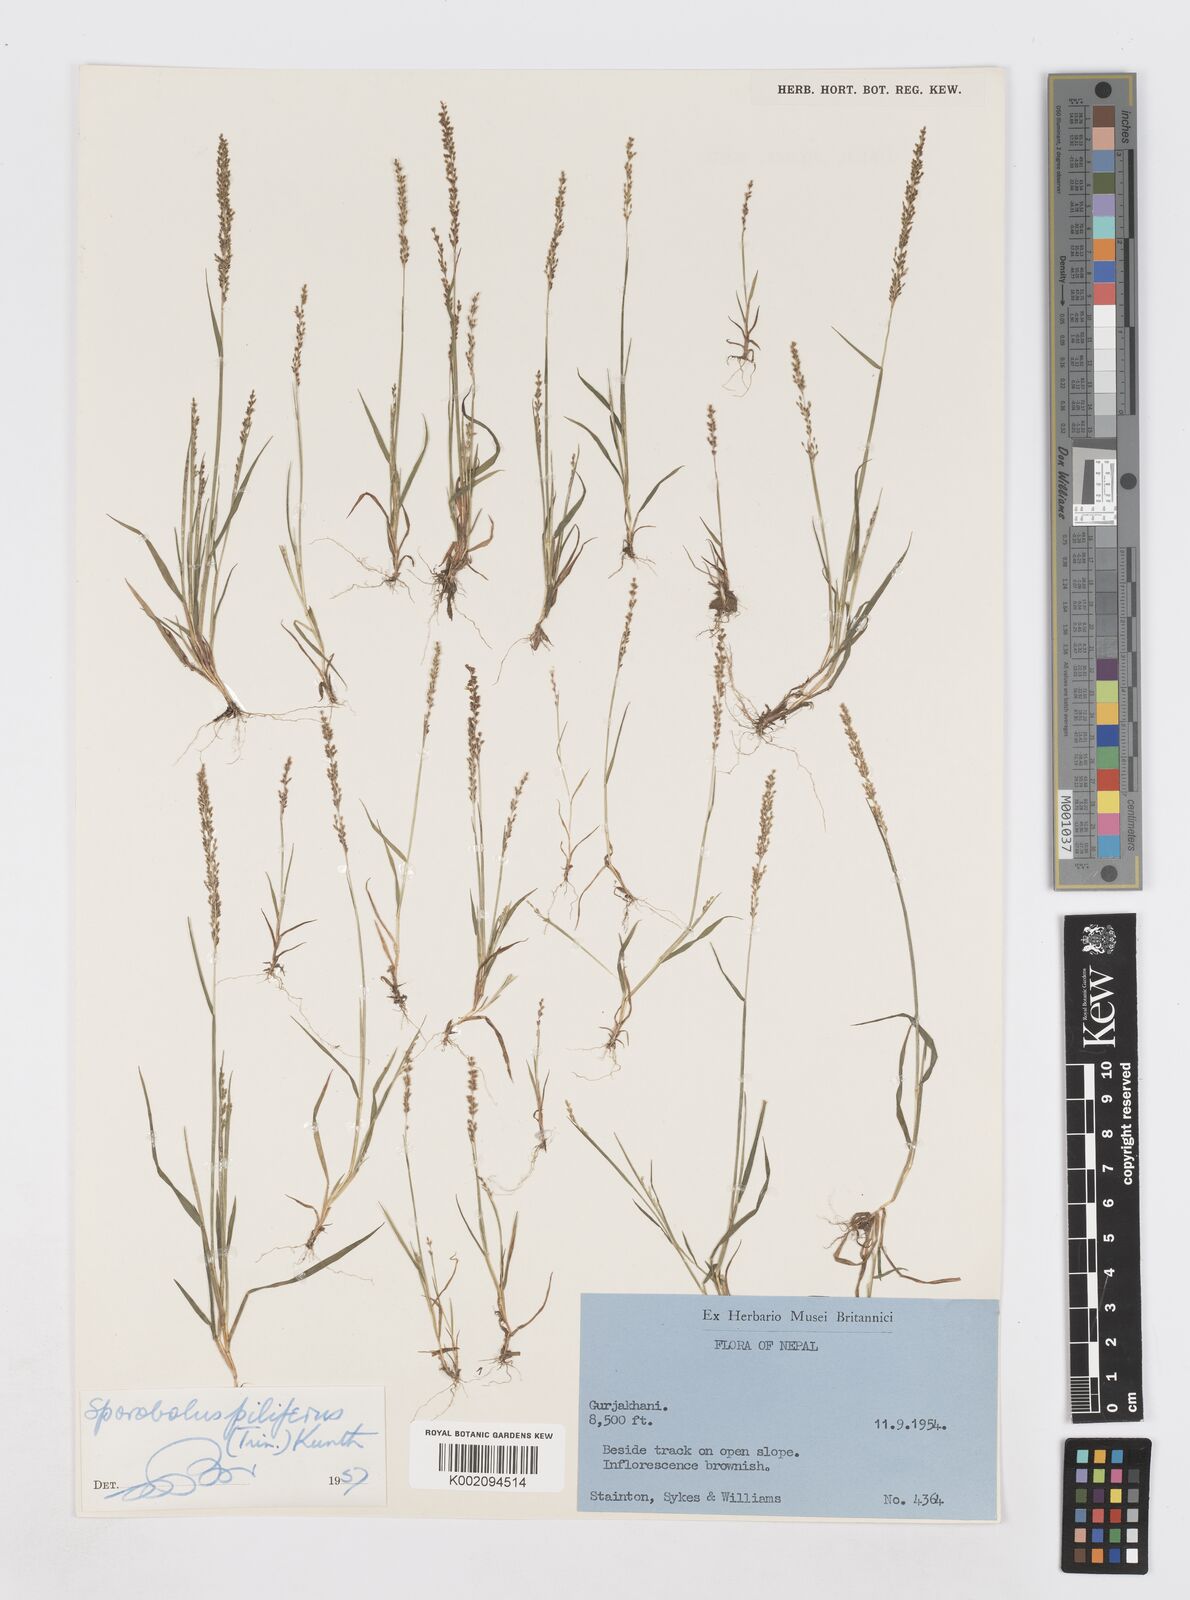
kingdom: Plantae
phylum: Tracheophyta
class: Liliopsida
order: Poales
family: Poaceae
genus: Sporobolus
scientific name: Sporobolus pilifer
